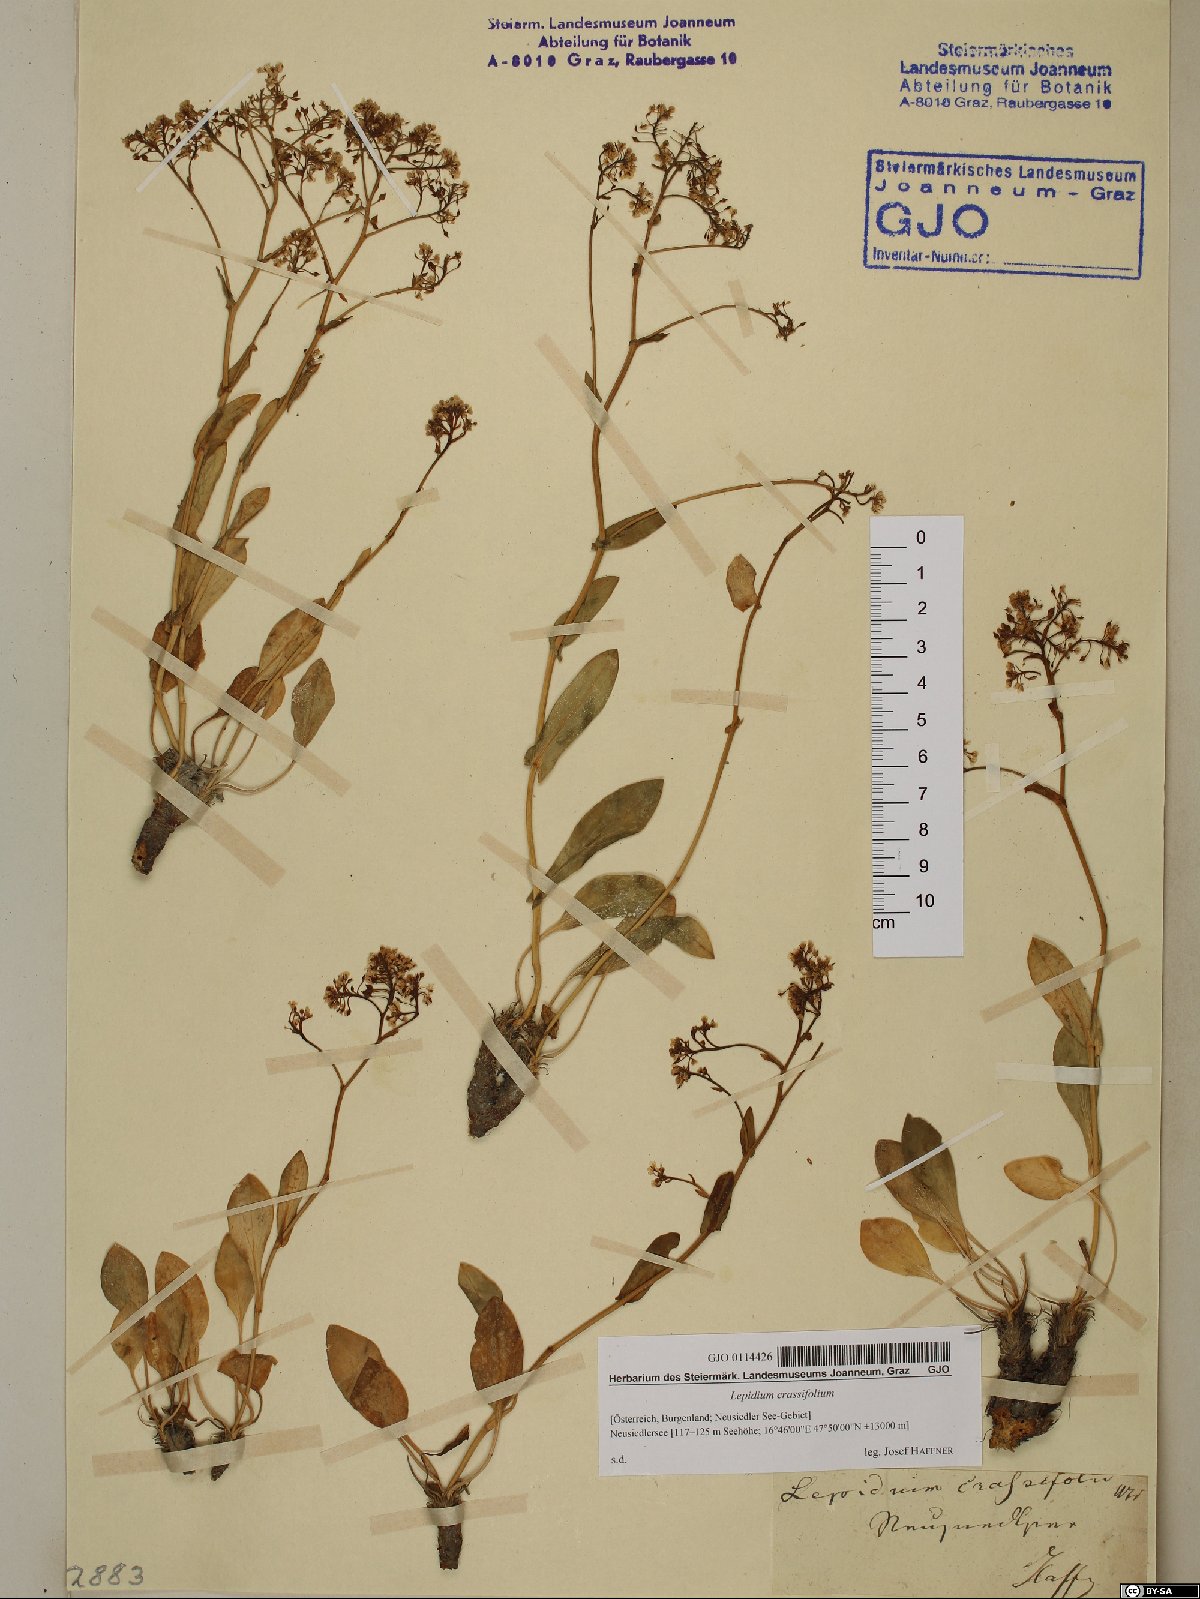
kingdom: Plantae
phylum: Tracheophyta
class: Magnoliopsida
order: Brassicales
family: Brassicaceae
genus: Lepidium
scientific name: Lepidium cartilagineum
